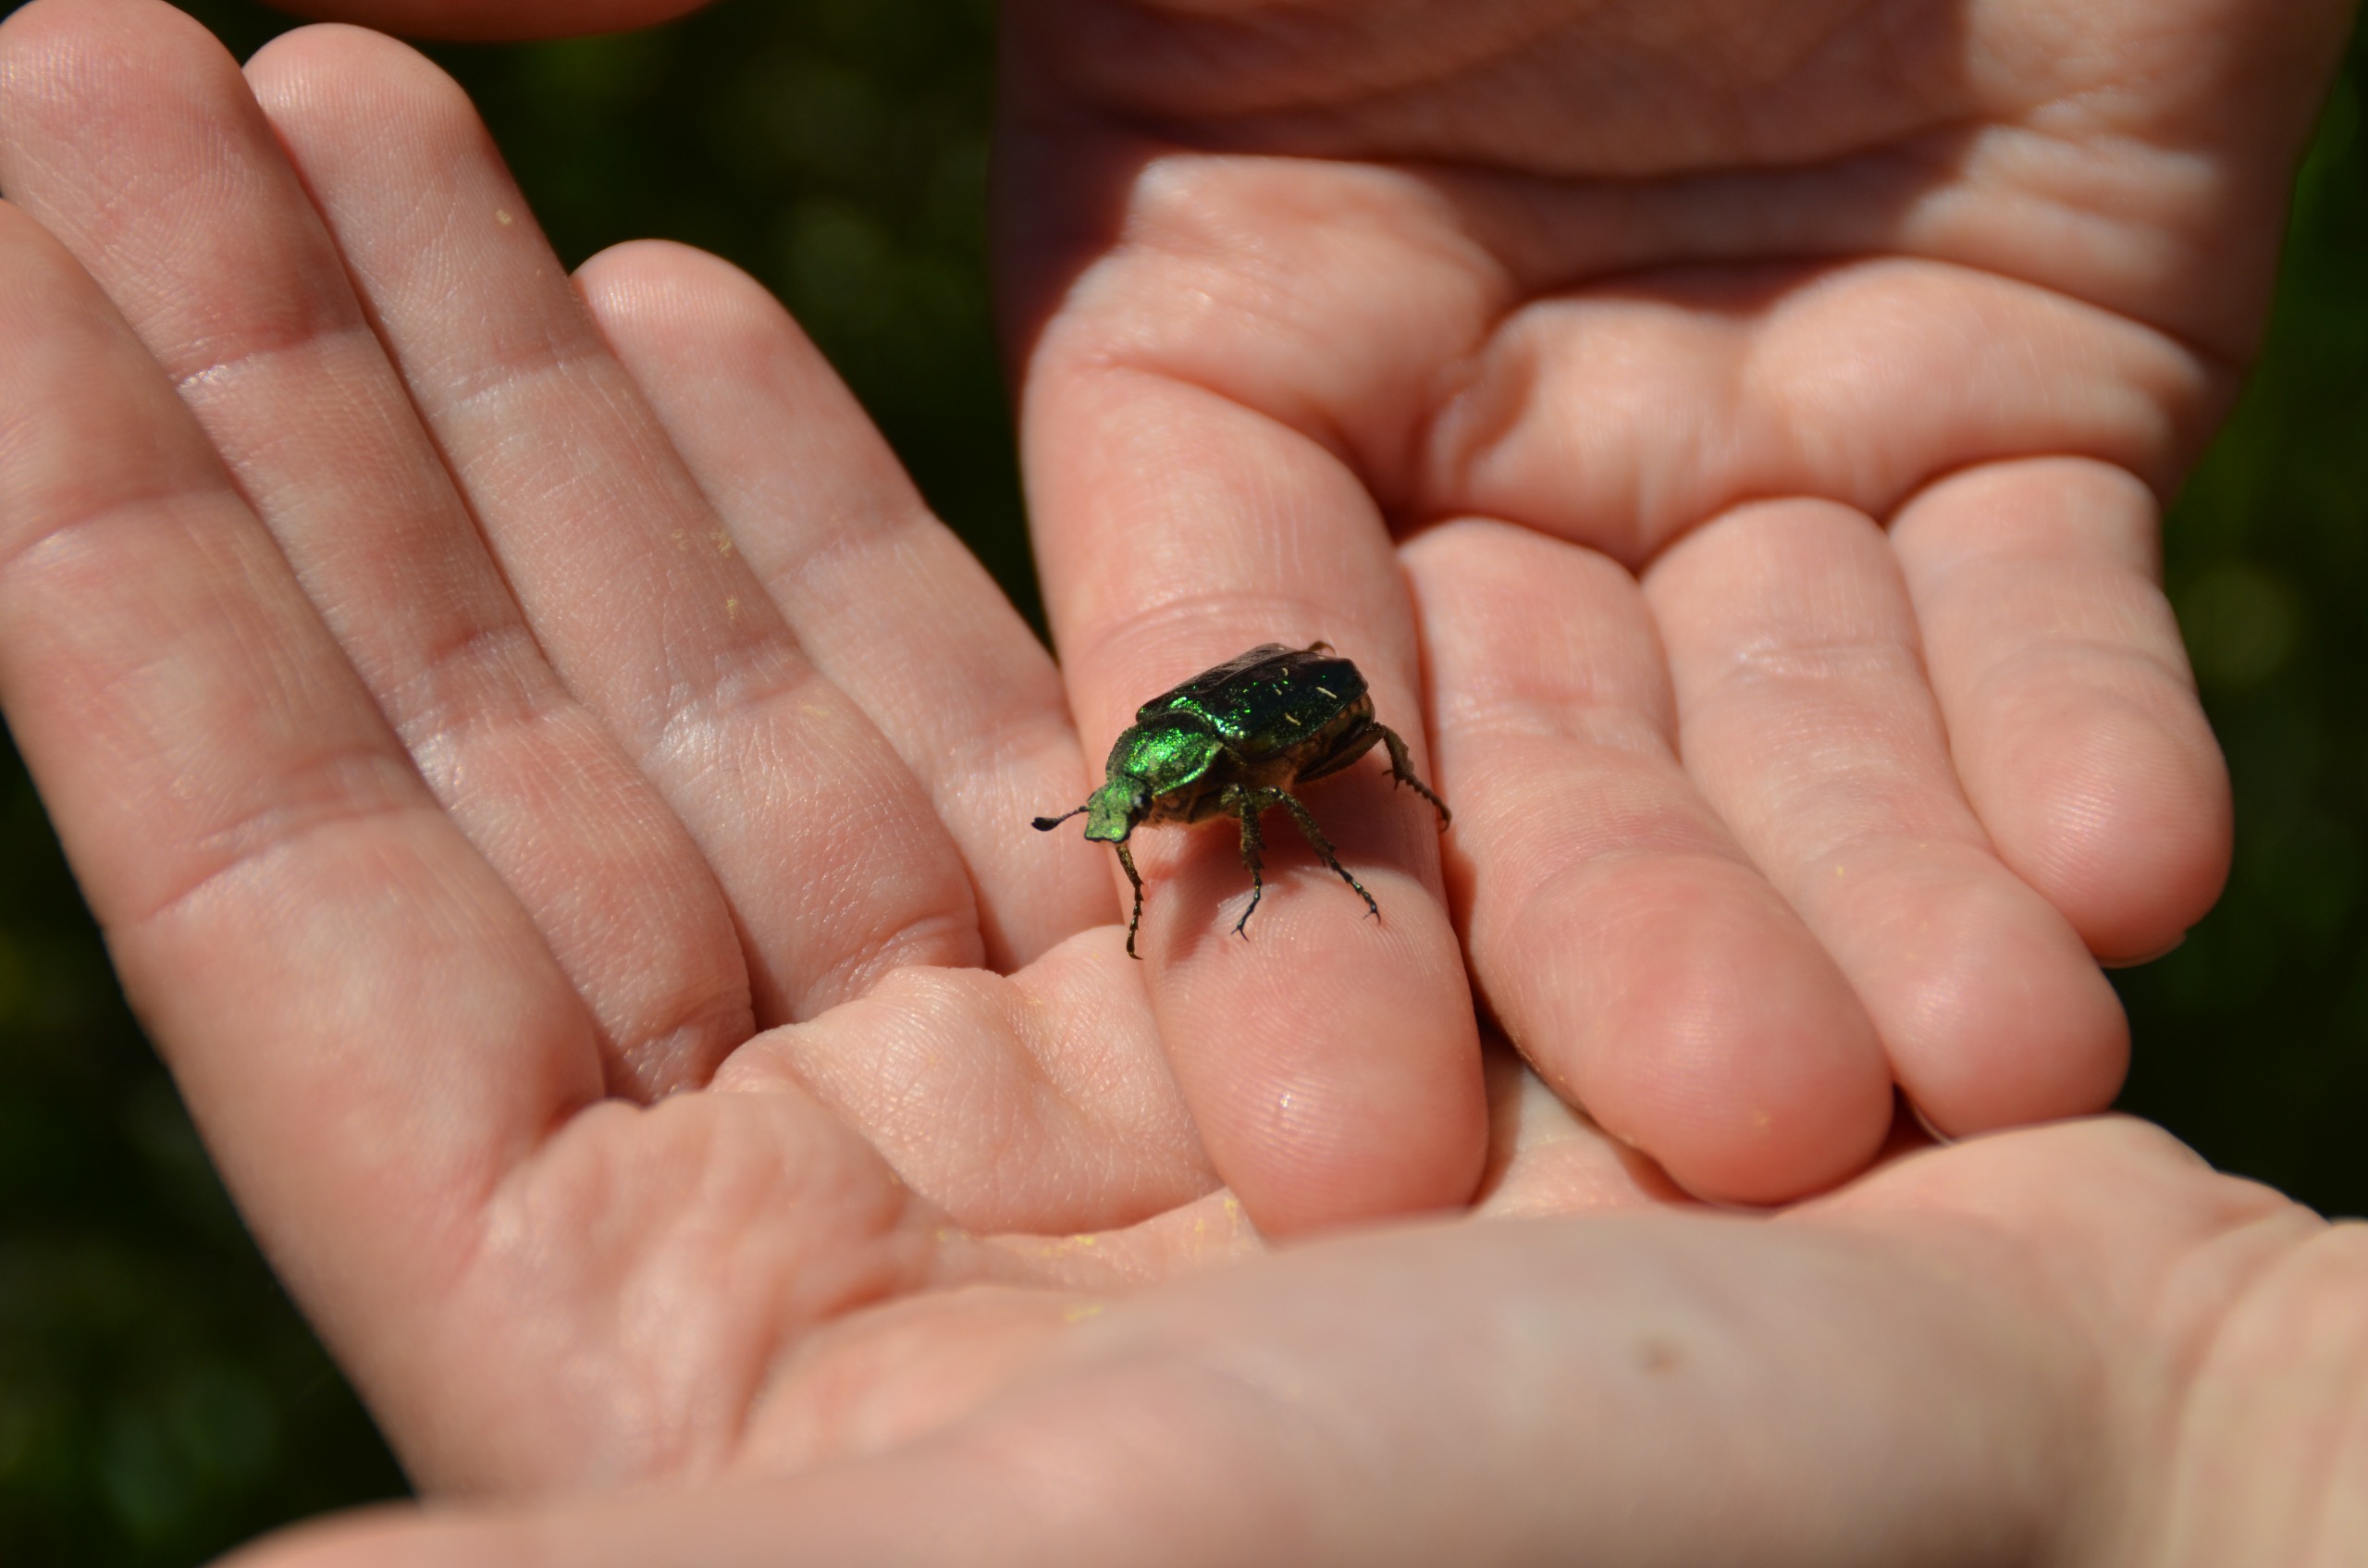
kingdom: Animalia
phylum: Arthropoda
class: Insecta
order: Coleoptera
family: Scarabaeidae
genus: Gnorimus
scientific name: Gnorimus nobilis
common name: Grøn pragttorbist
